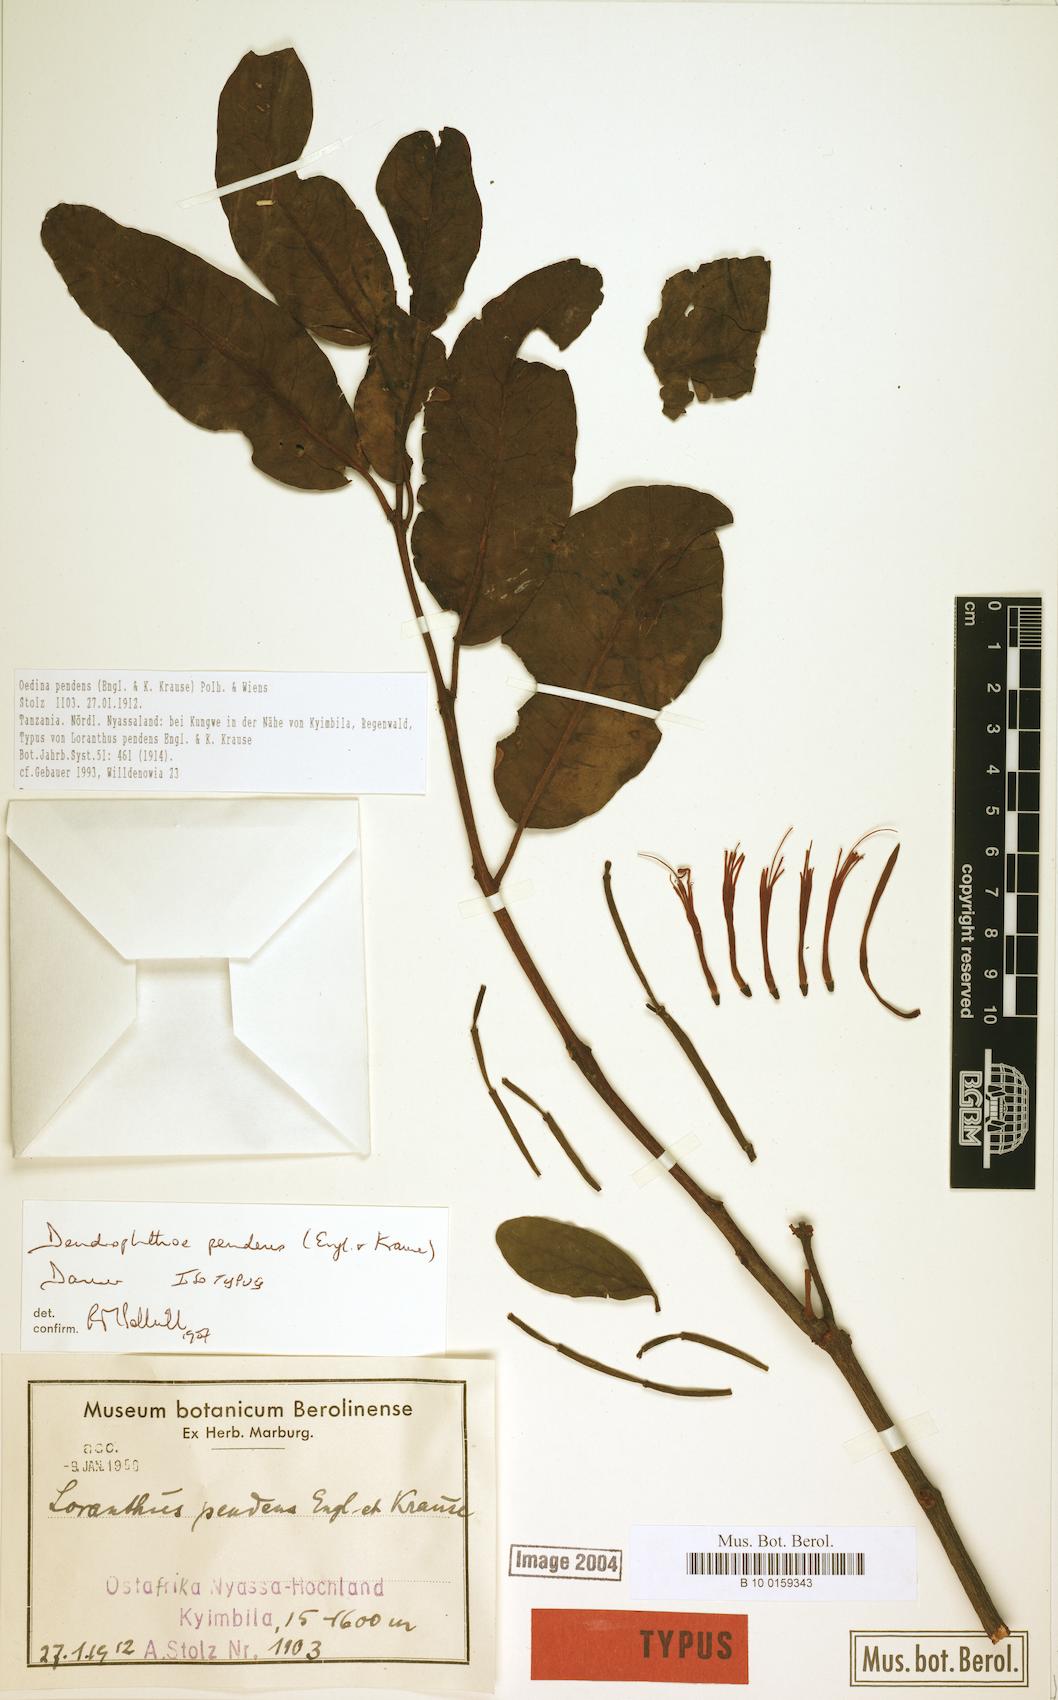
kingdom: Plantae
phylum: Tracheophyta
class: Magnoliopsida
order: Santalales
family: Loranthaceae
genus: Oedina
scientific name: Oedina pendens
